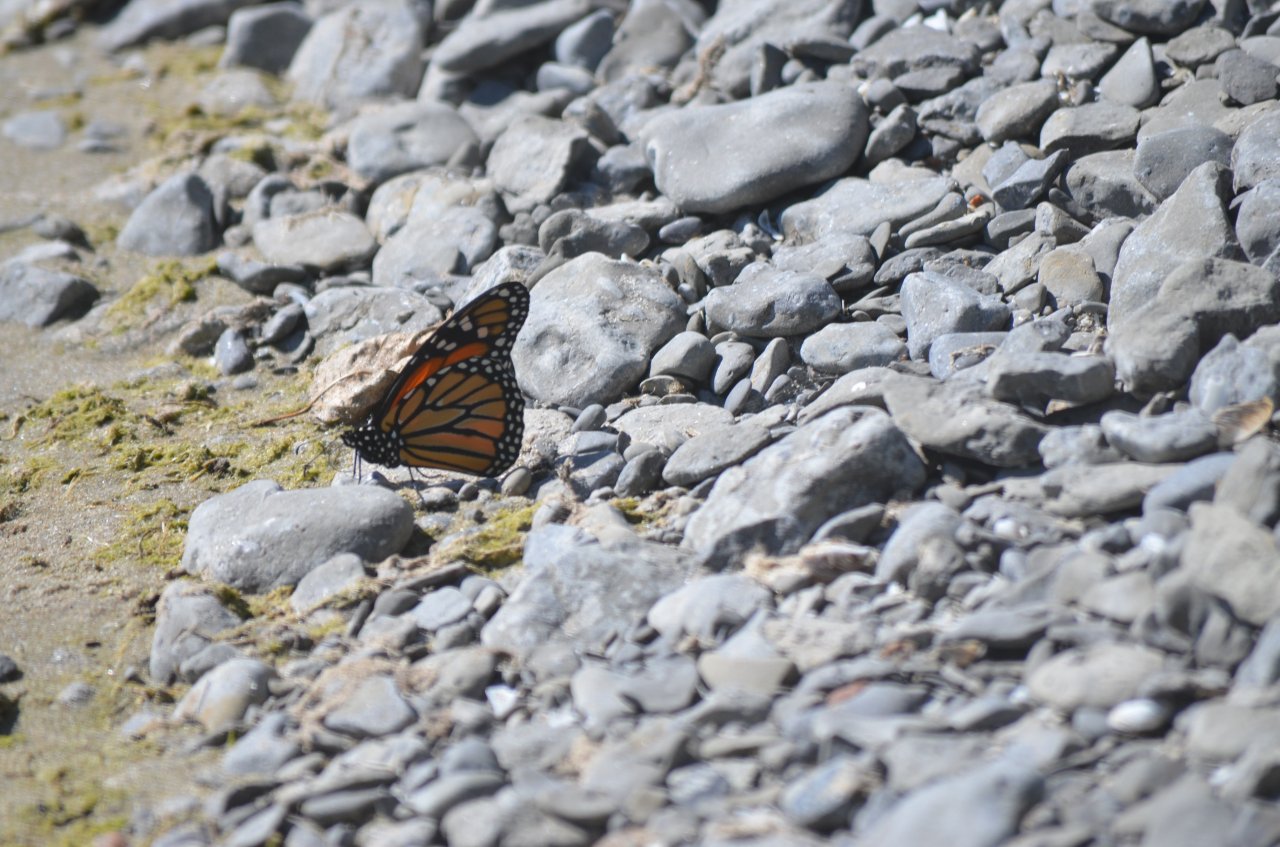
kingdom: Animalia
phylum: Arthropoda
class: Insecta
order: Lepidoptera
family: Nymphalidae
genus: Danaus
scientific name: Danaus plexippus
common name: Monarch
